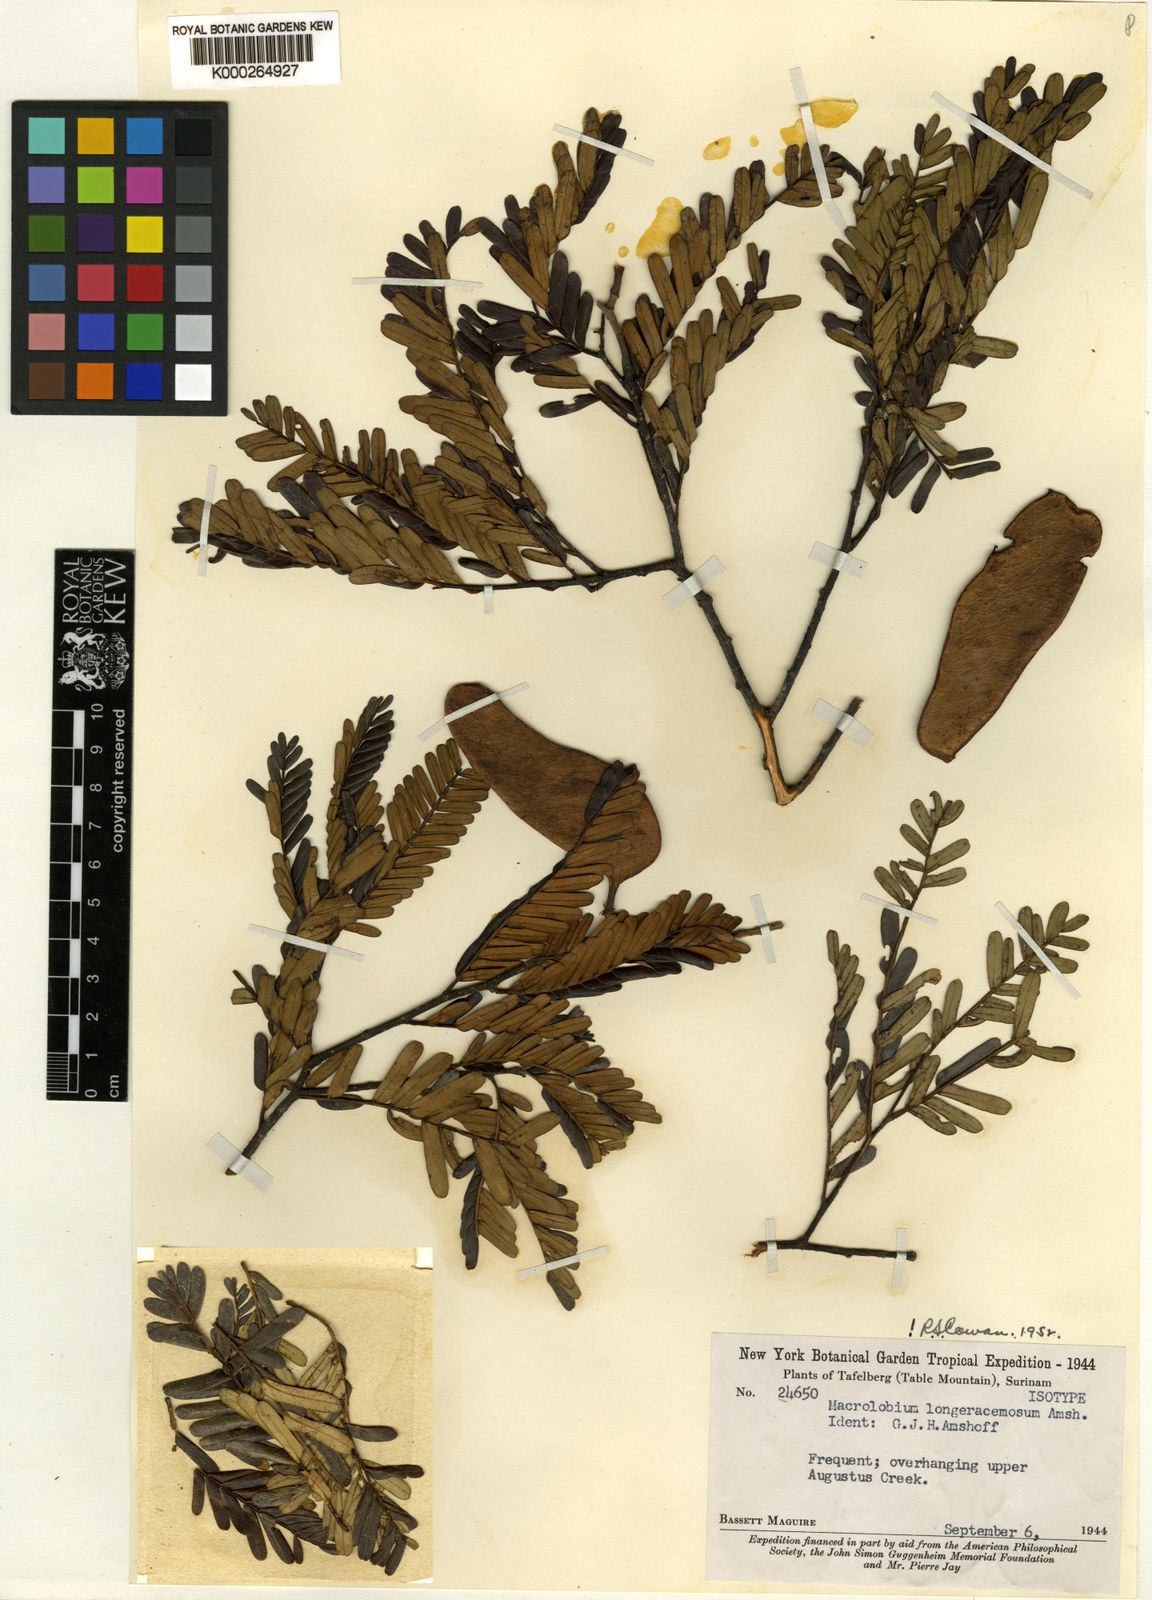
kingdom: Plantae
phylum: Tracheophyta
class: Magnoliopsida
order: Fabales
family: Fabaceae
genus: Macrolobium
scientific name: Macrolobium longeracemosum
